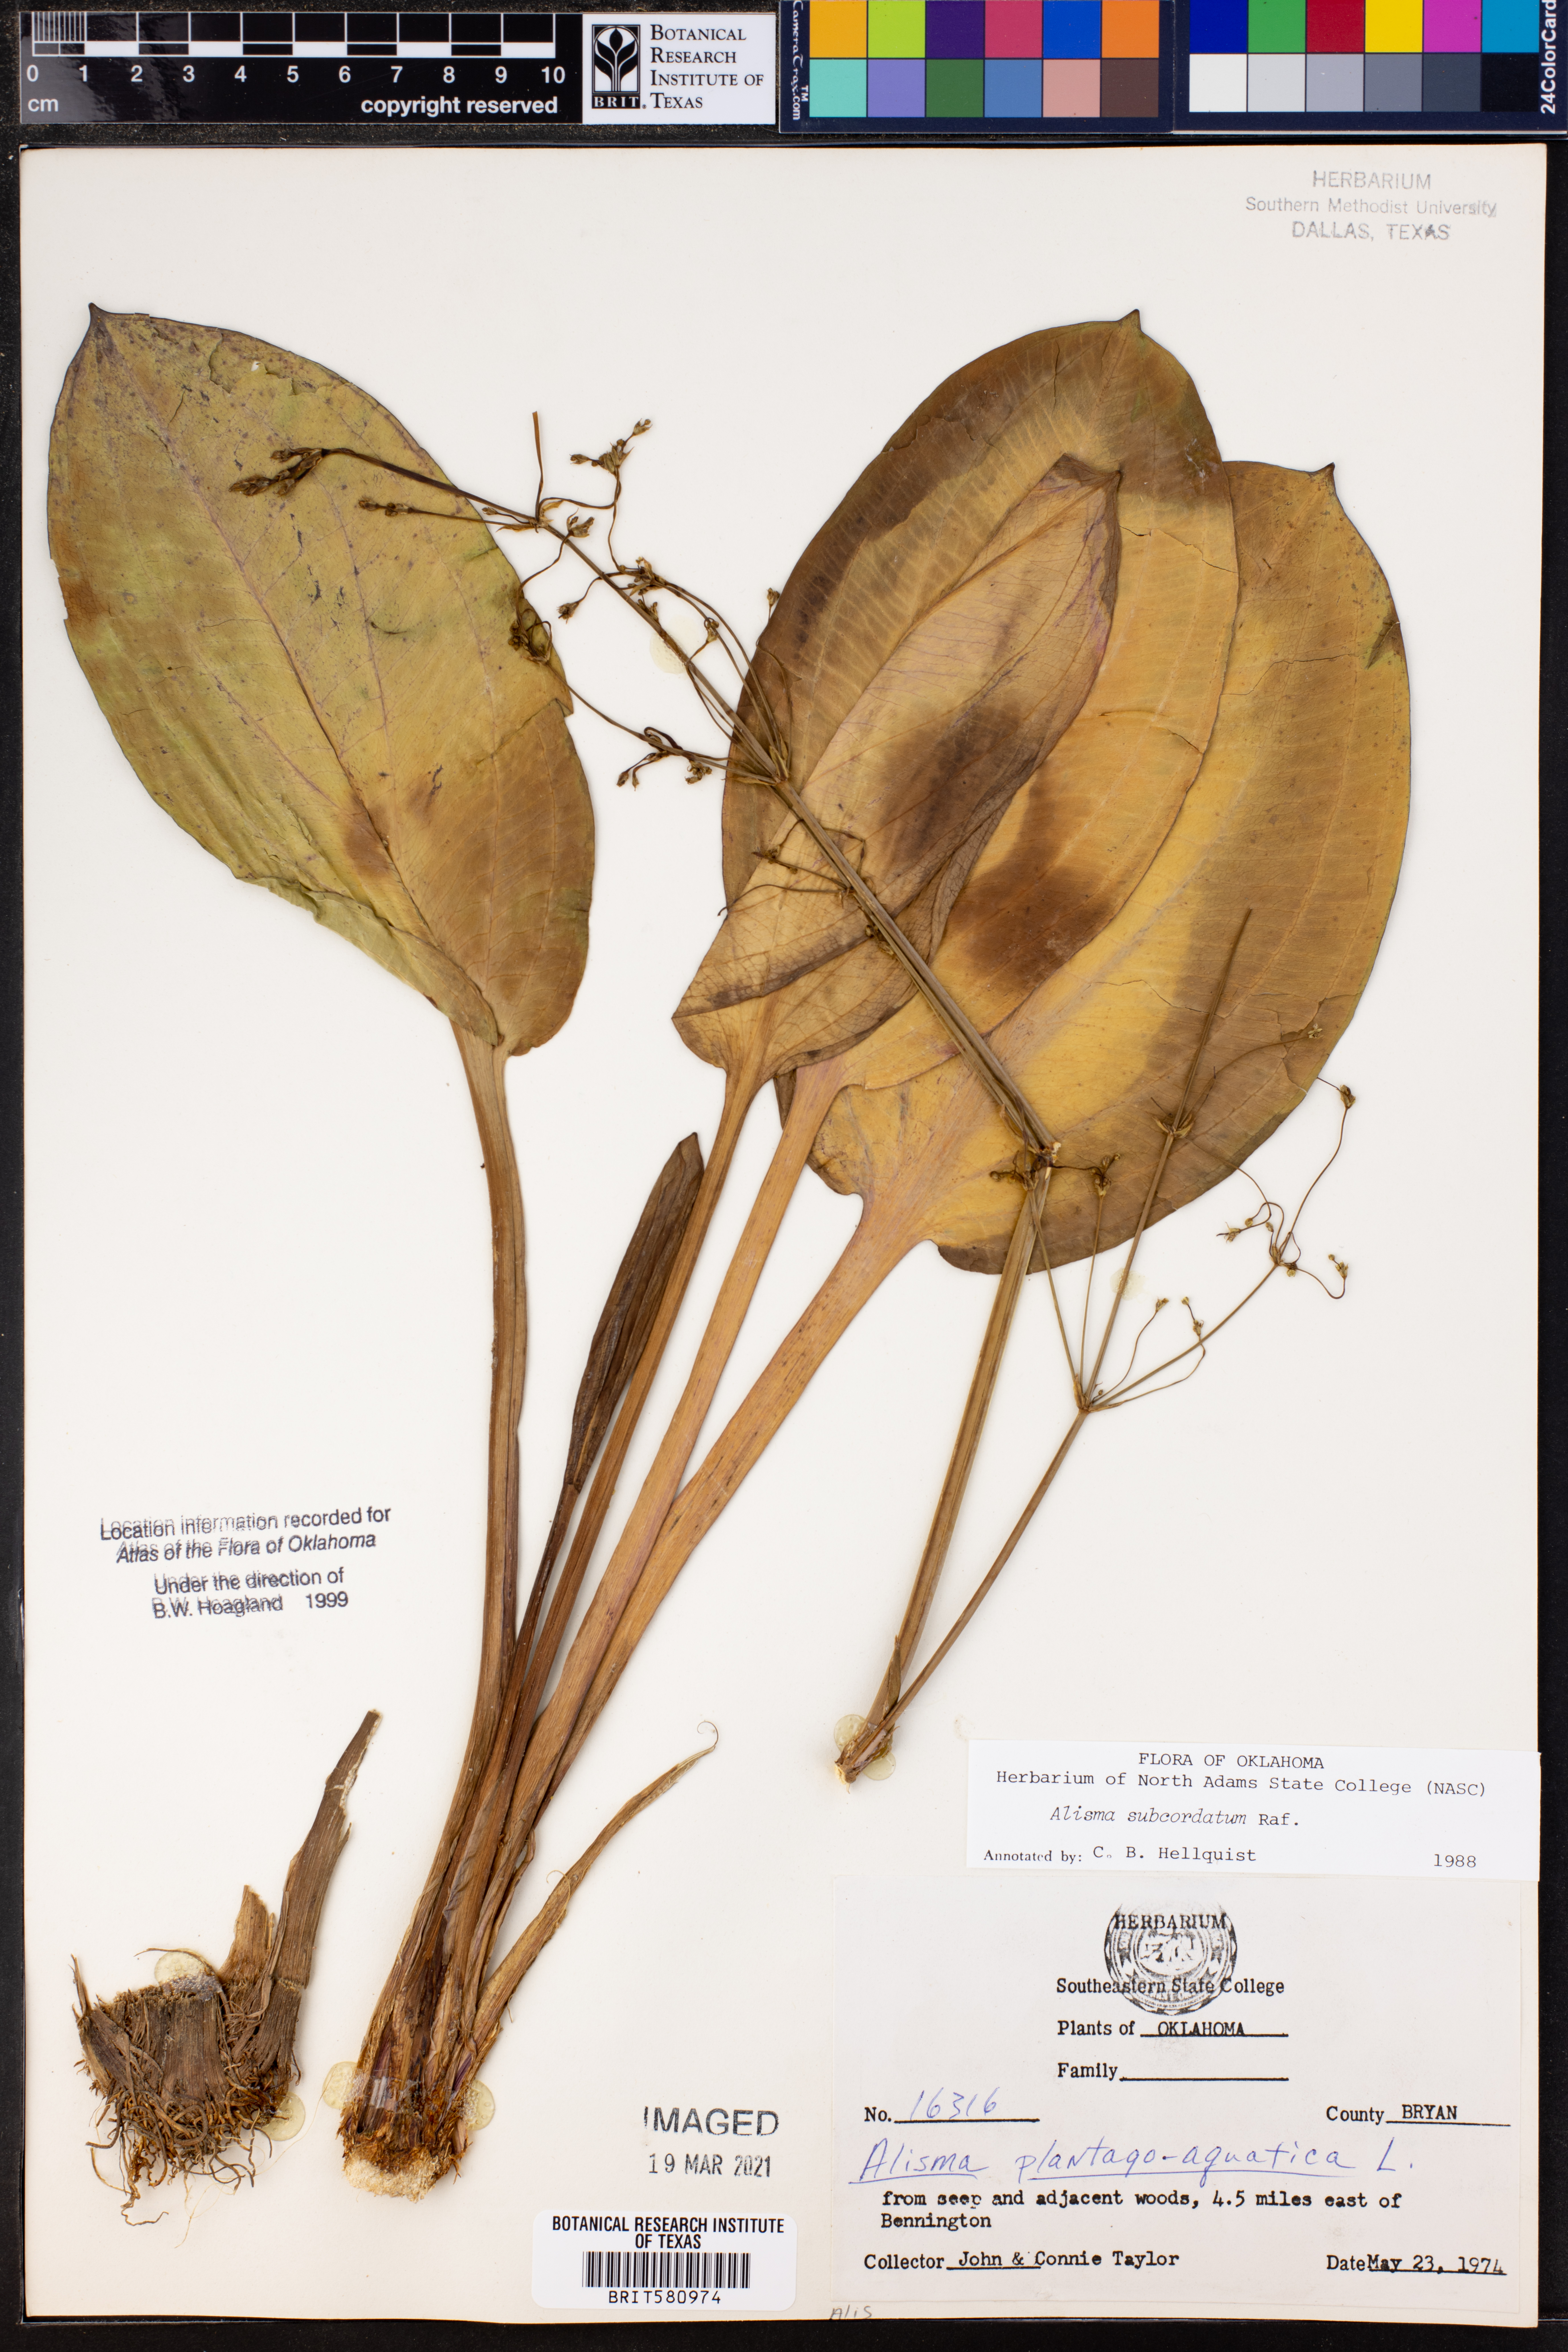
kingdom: Plantae
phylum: Tracheophyta
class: Liliopsida
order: Alismatales
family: Alismataceae
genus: Alisma
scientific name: Alisma subcordatum
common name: Southern water-plantain
